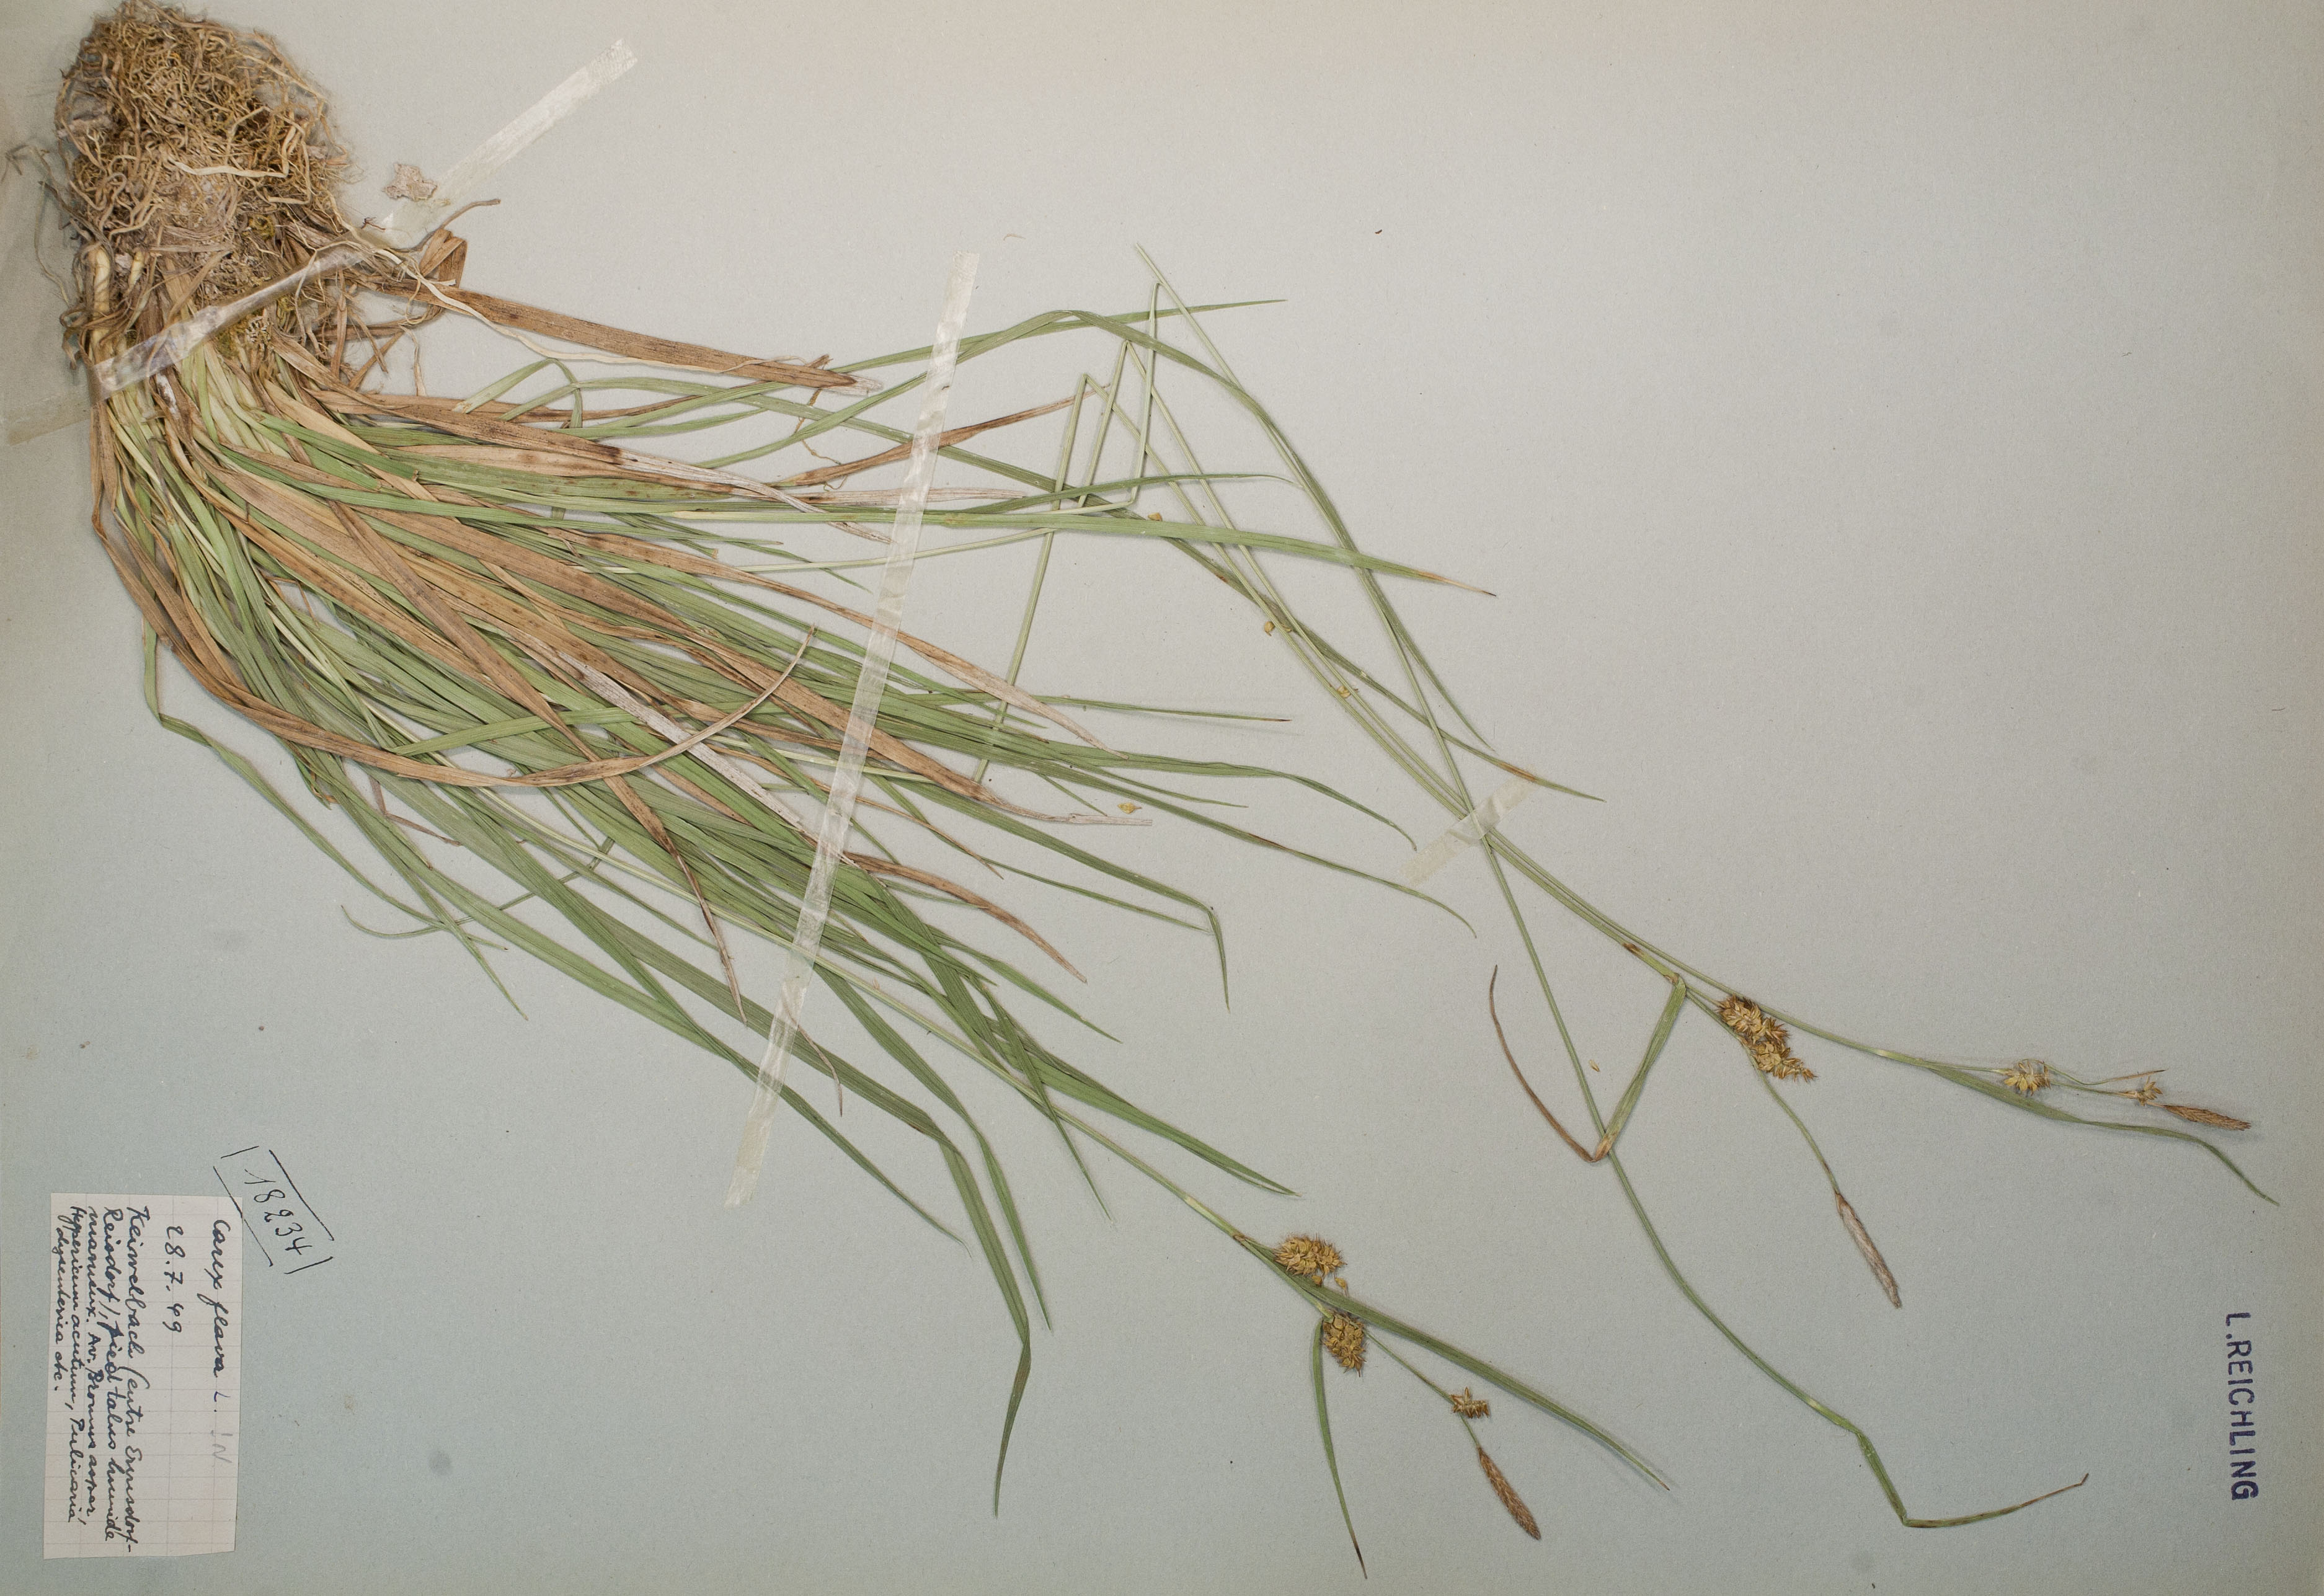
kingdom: Plantae
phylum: Tracheophyta
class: Liliopsida
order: Poales
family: Cyperaceae
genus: Carex
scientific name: Carex flava
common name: Large yellow-sedge
